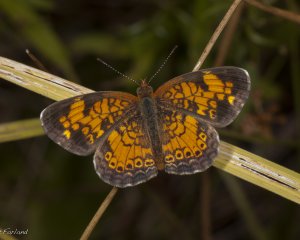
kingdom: Animalia
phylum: Arthropoda
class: Insecta
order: Lepidoptera
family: Nymphalidae
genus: Phyciodes
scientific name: Phyciodes
